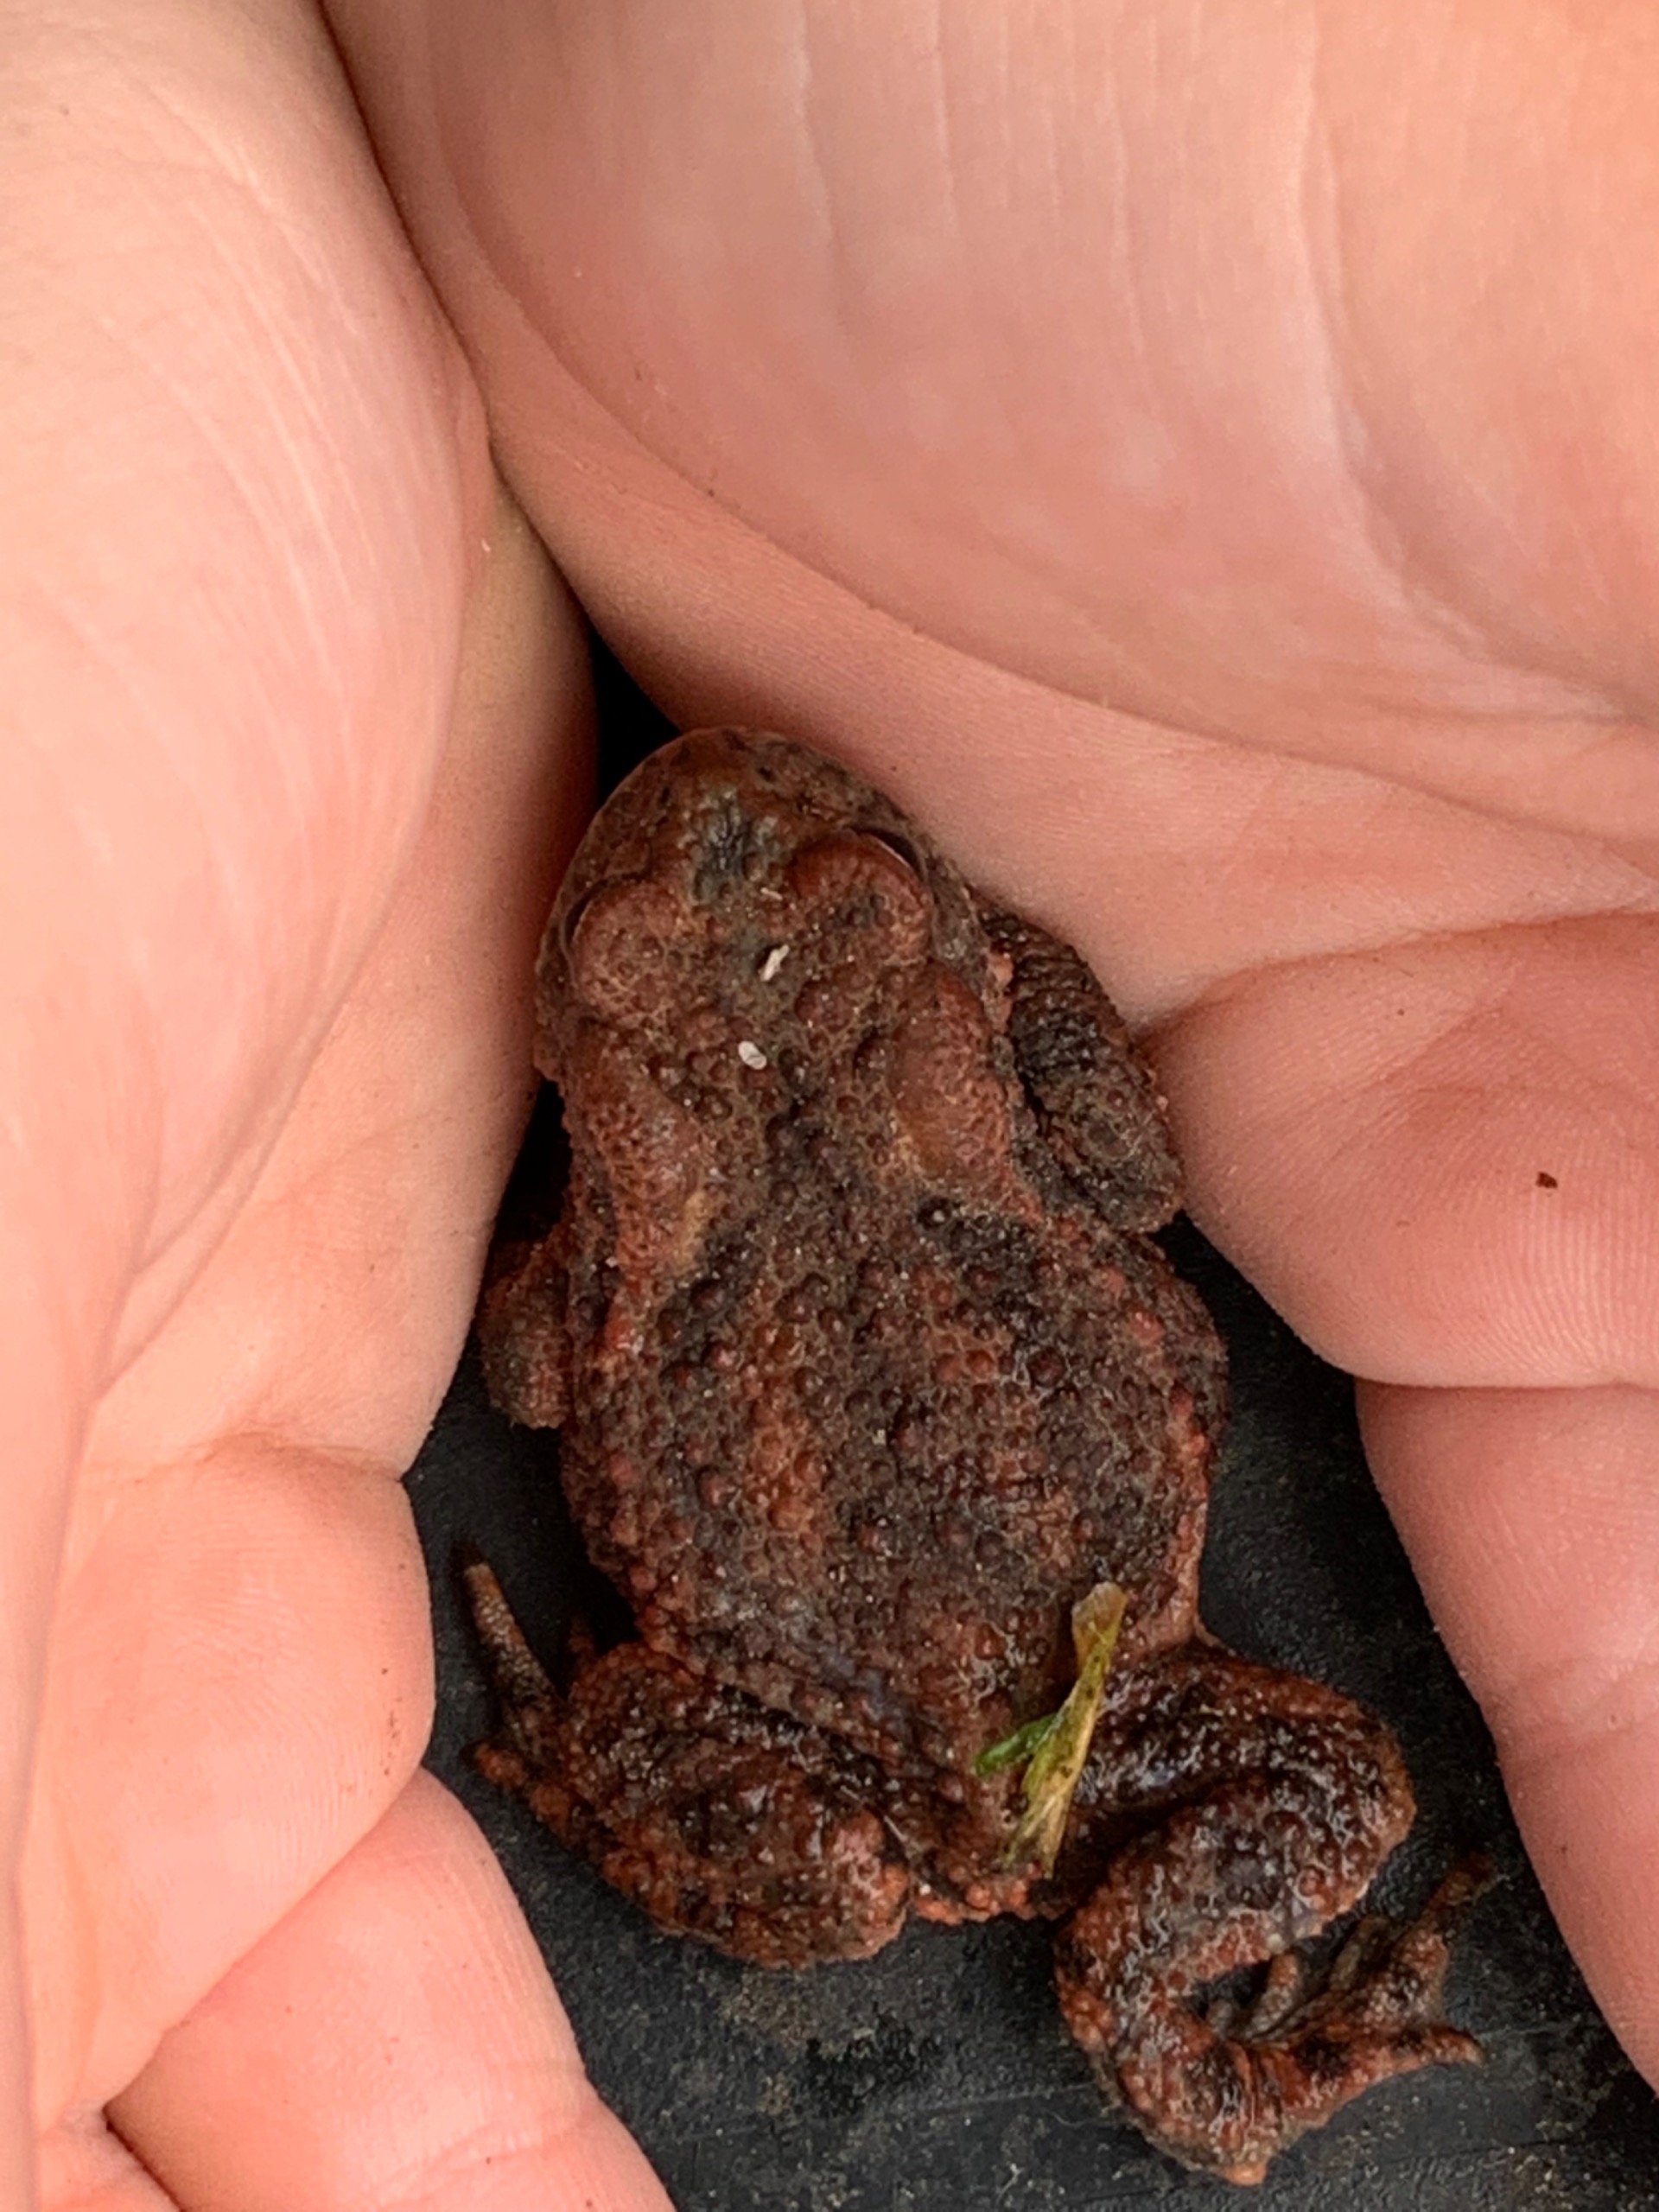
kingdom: Animalia
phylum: Chordata
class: Amphibia
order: Anura
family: Bufonidae
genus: Bufo
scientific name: Bufo bufo
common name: Skrubtudse
